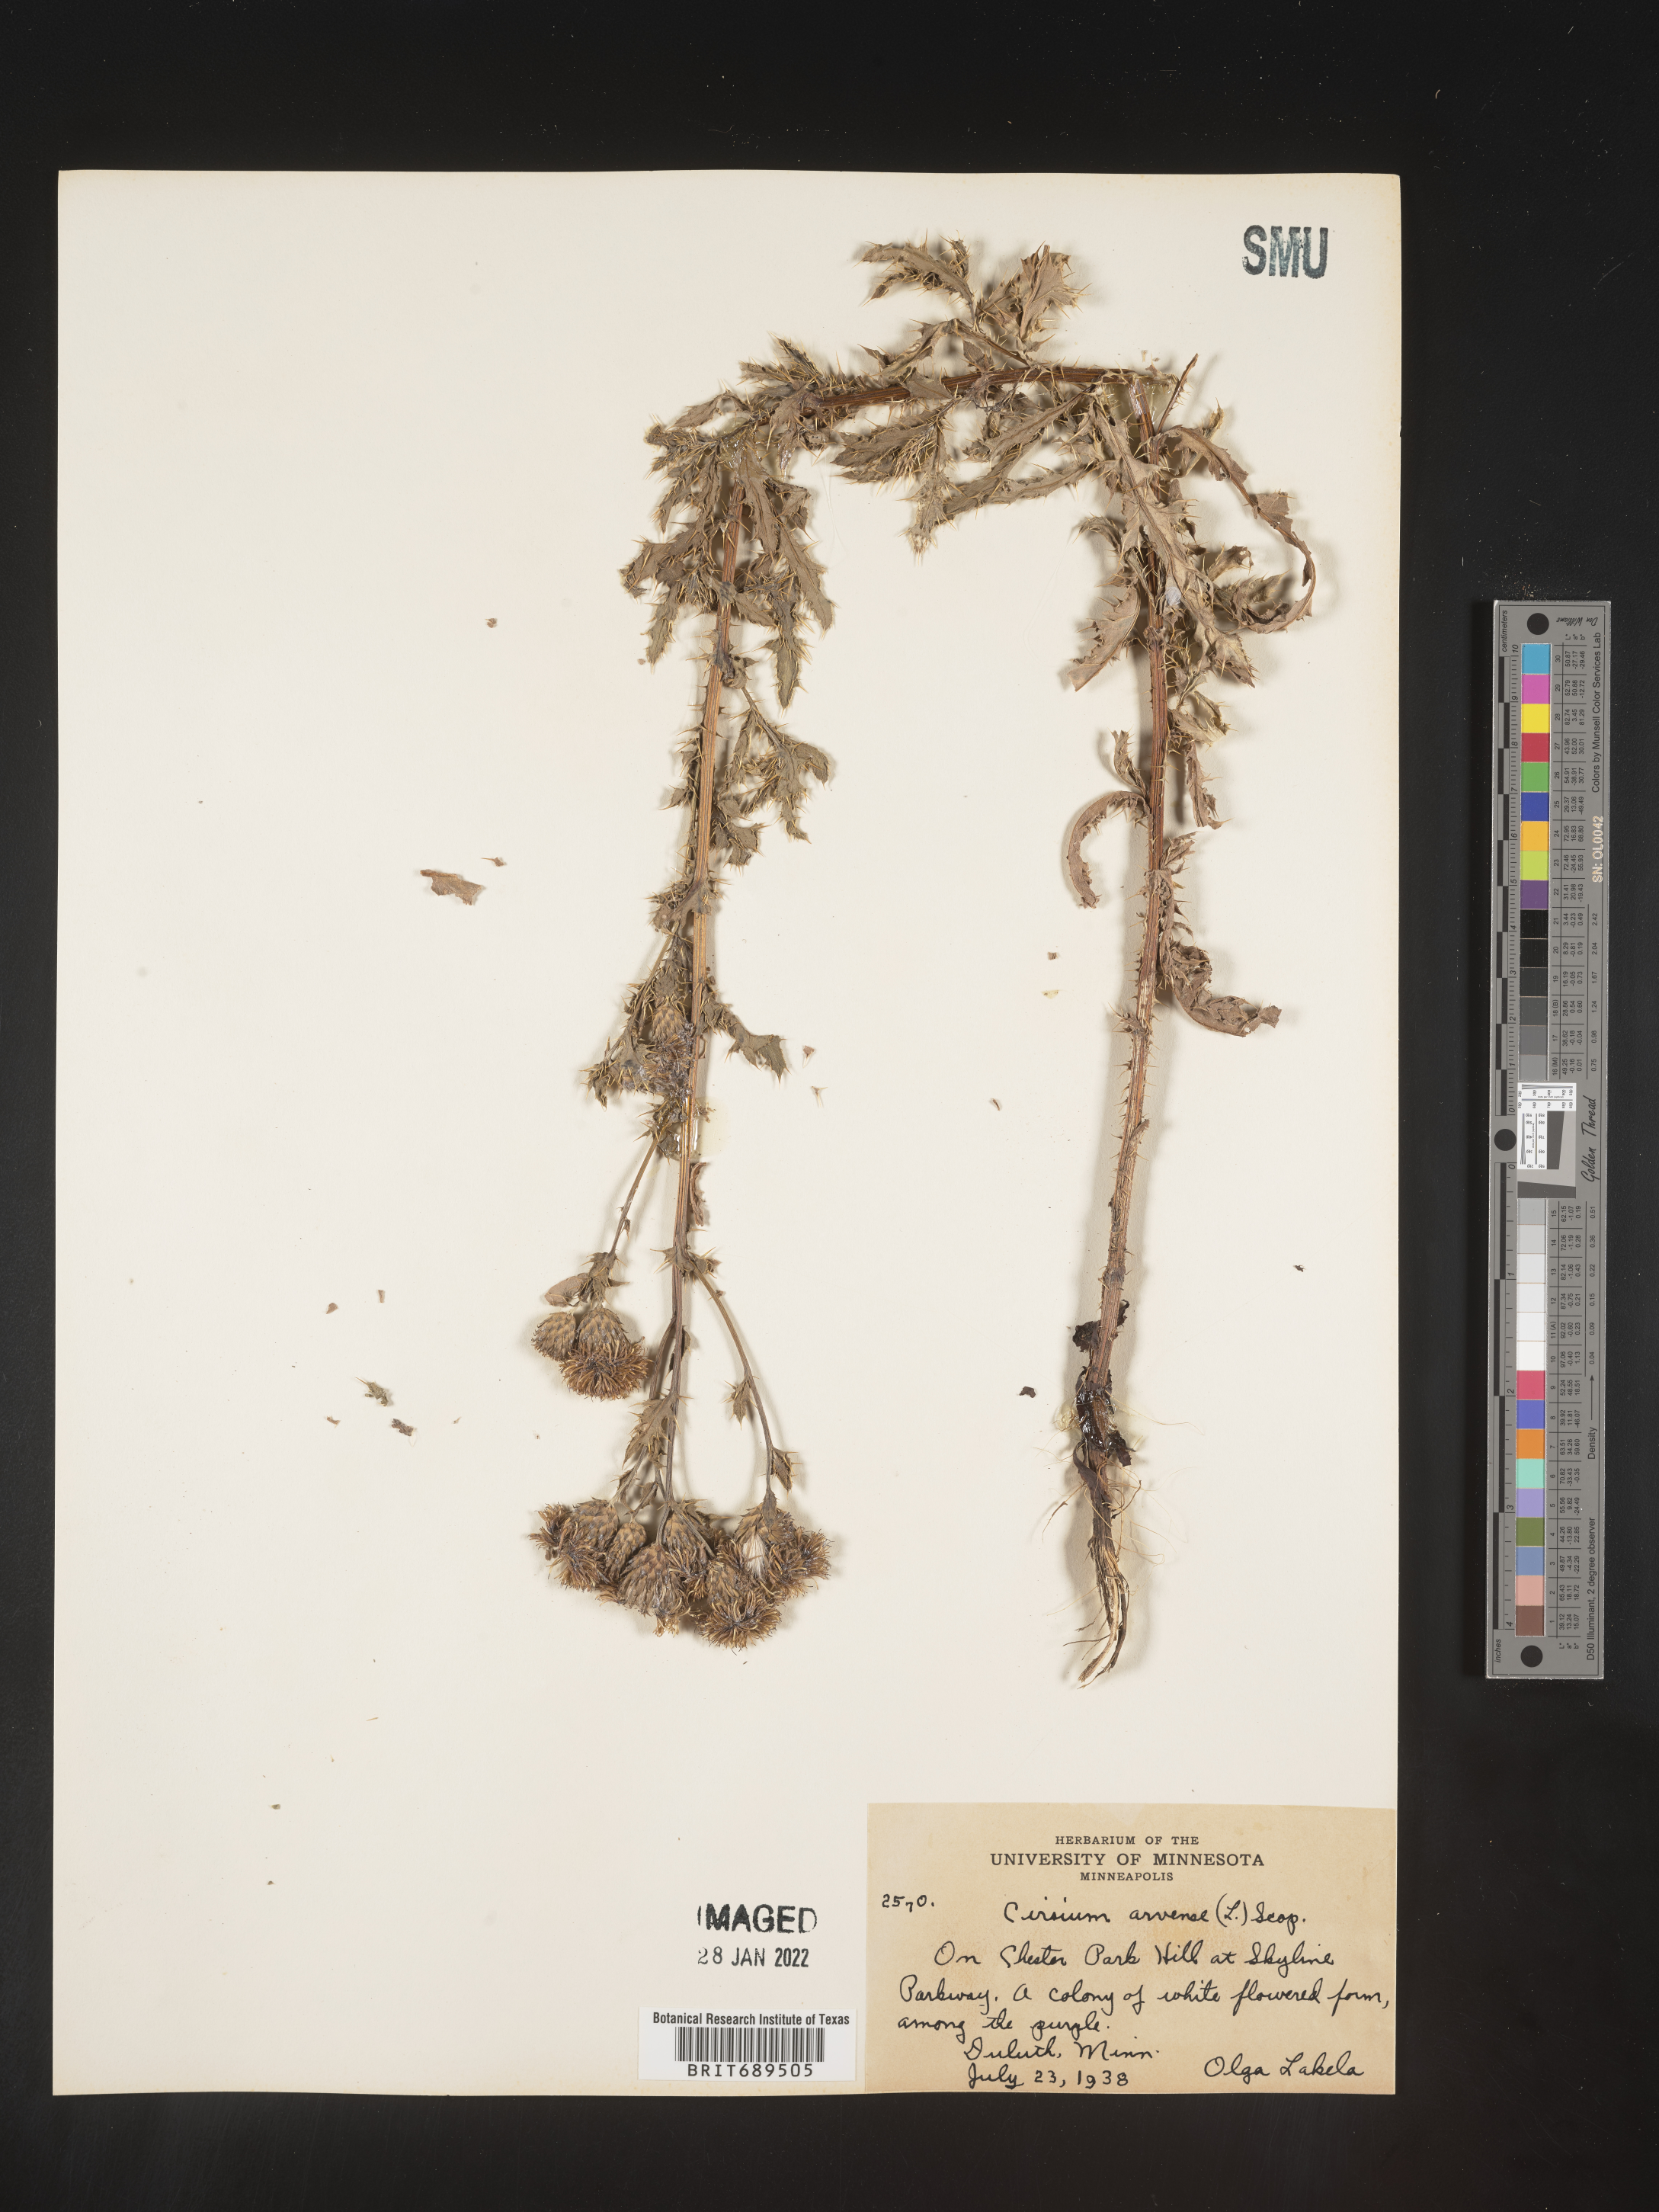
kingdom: Plantae
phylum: Tracheophyta
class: Magnoliopsida
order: Asterales
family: Asteraceae
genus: Cirsium
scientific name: Cirsium arvense
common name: Creeping thistle
